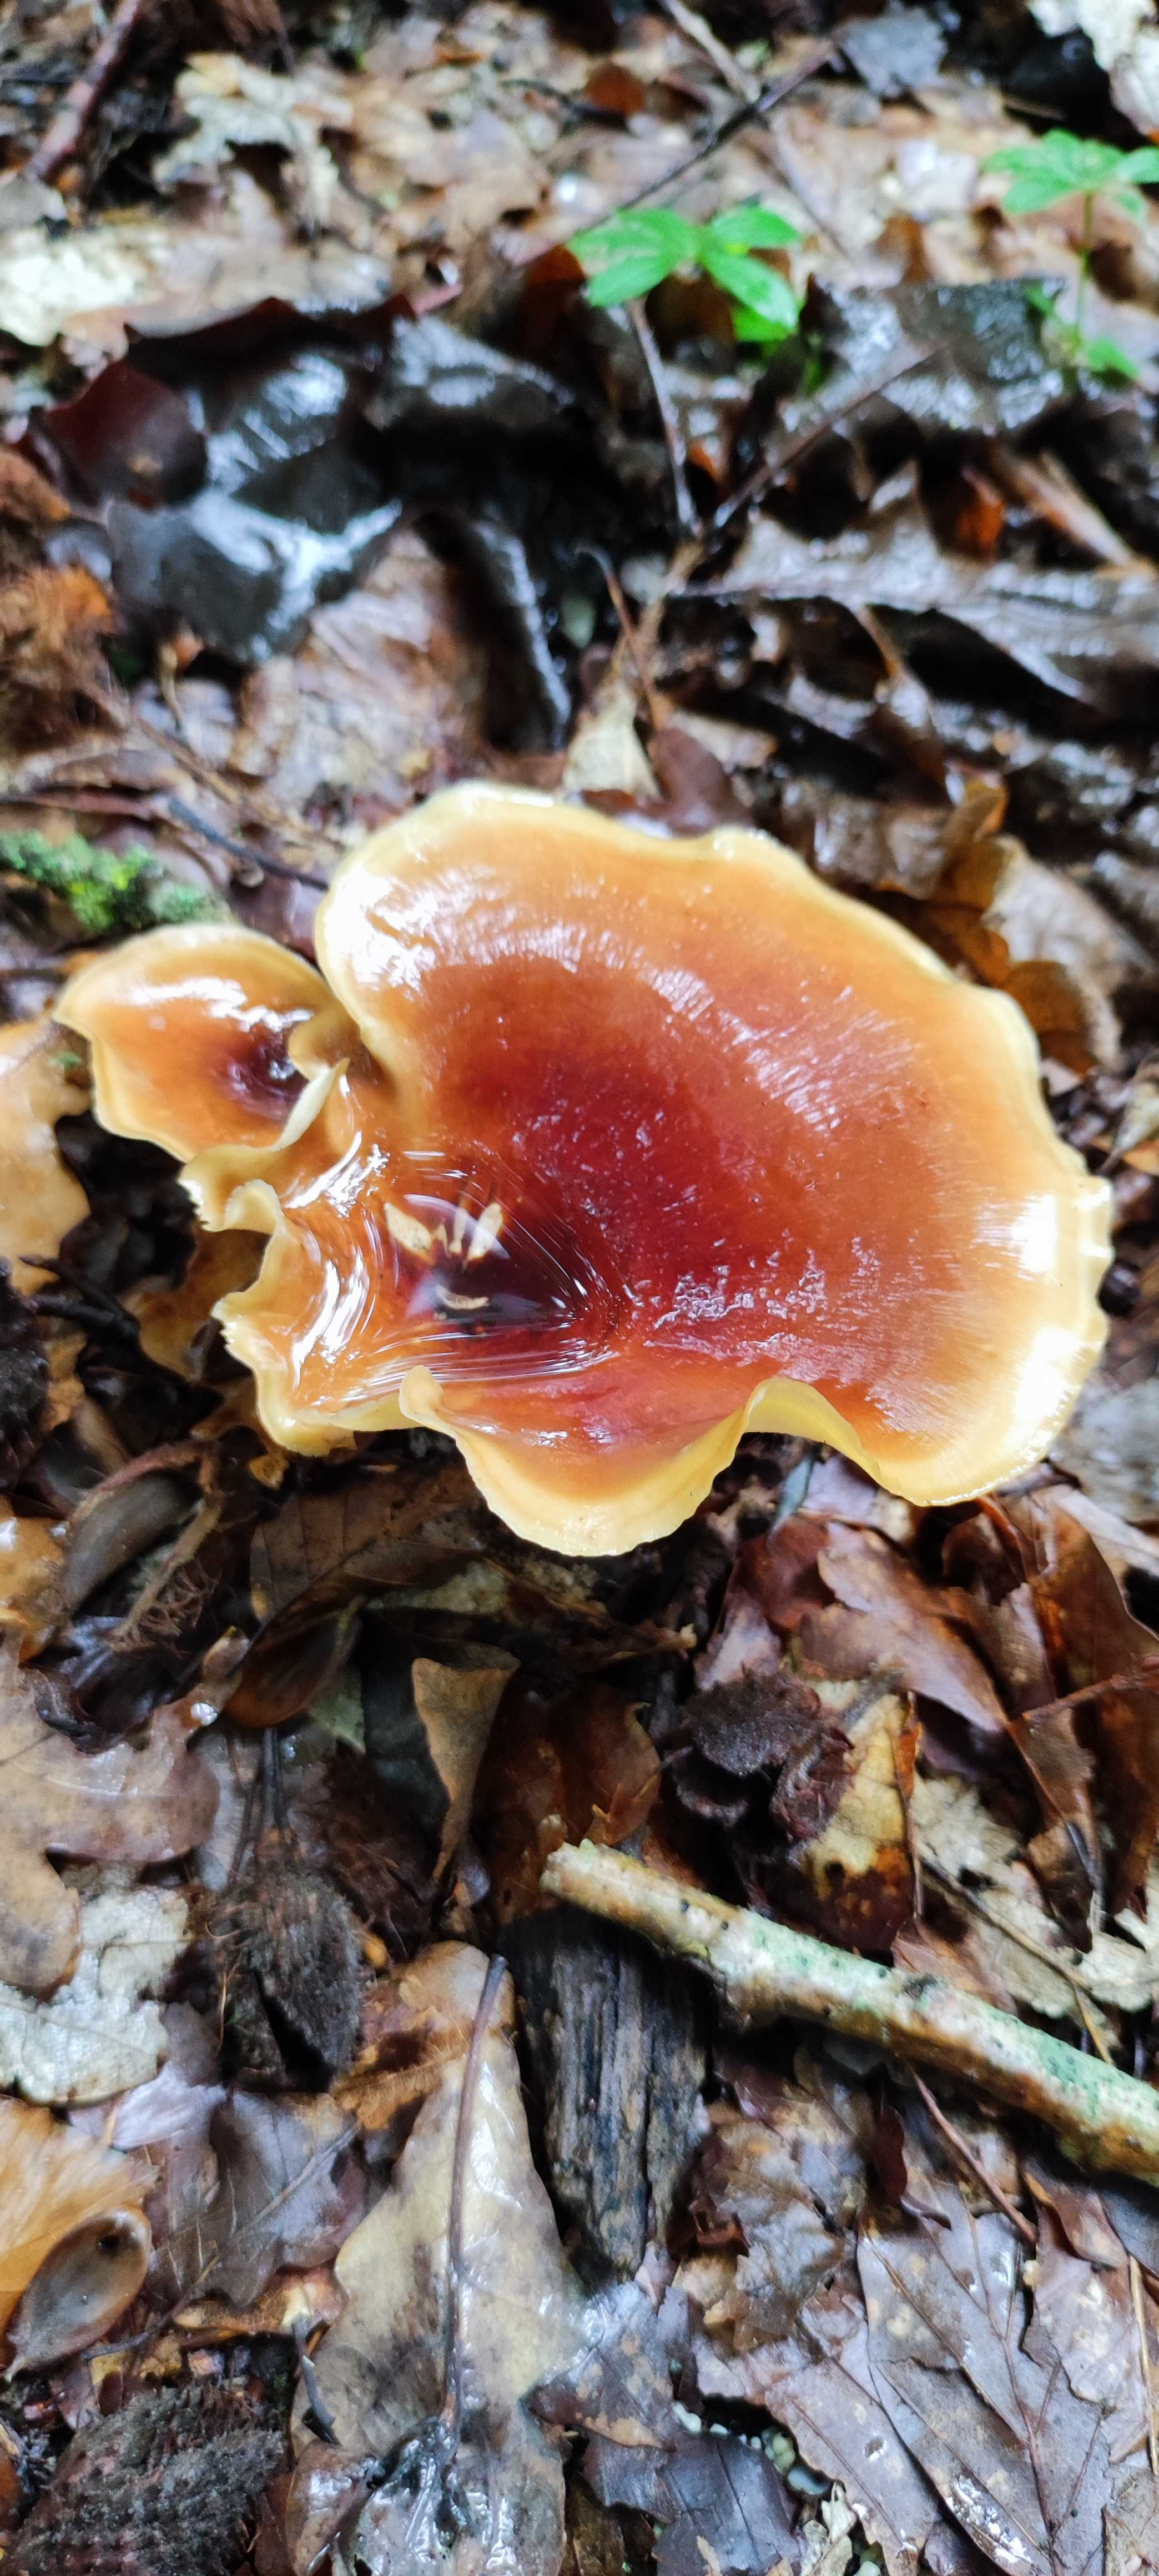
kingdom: Fungi
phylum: Basidiomycota
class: Agaricomycetes
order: Polyporales
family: Polyporaceae
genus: Picipes
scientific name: Picipes badius
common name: kastaniebrun stilkporesvamp
